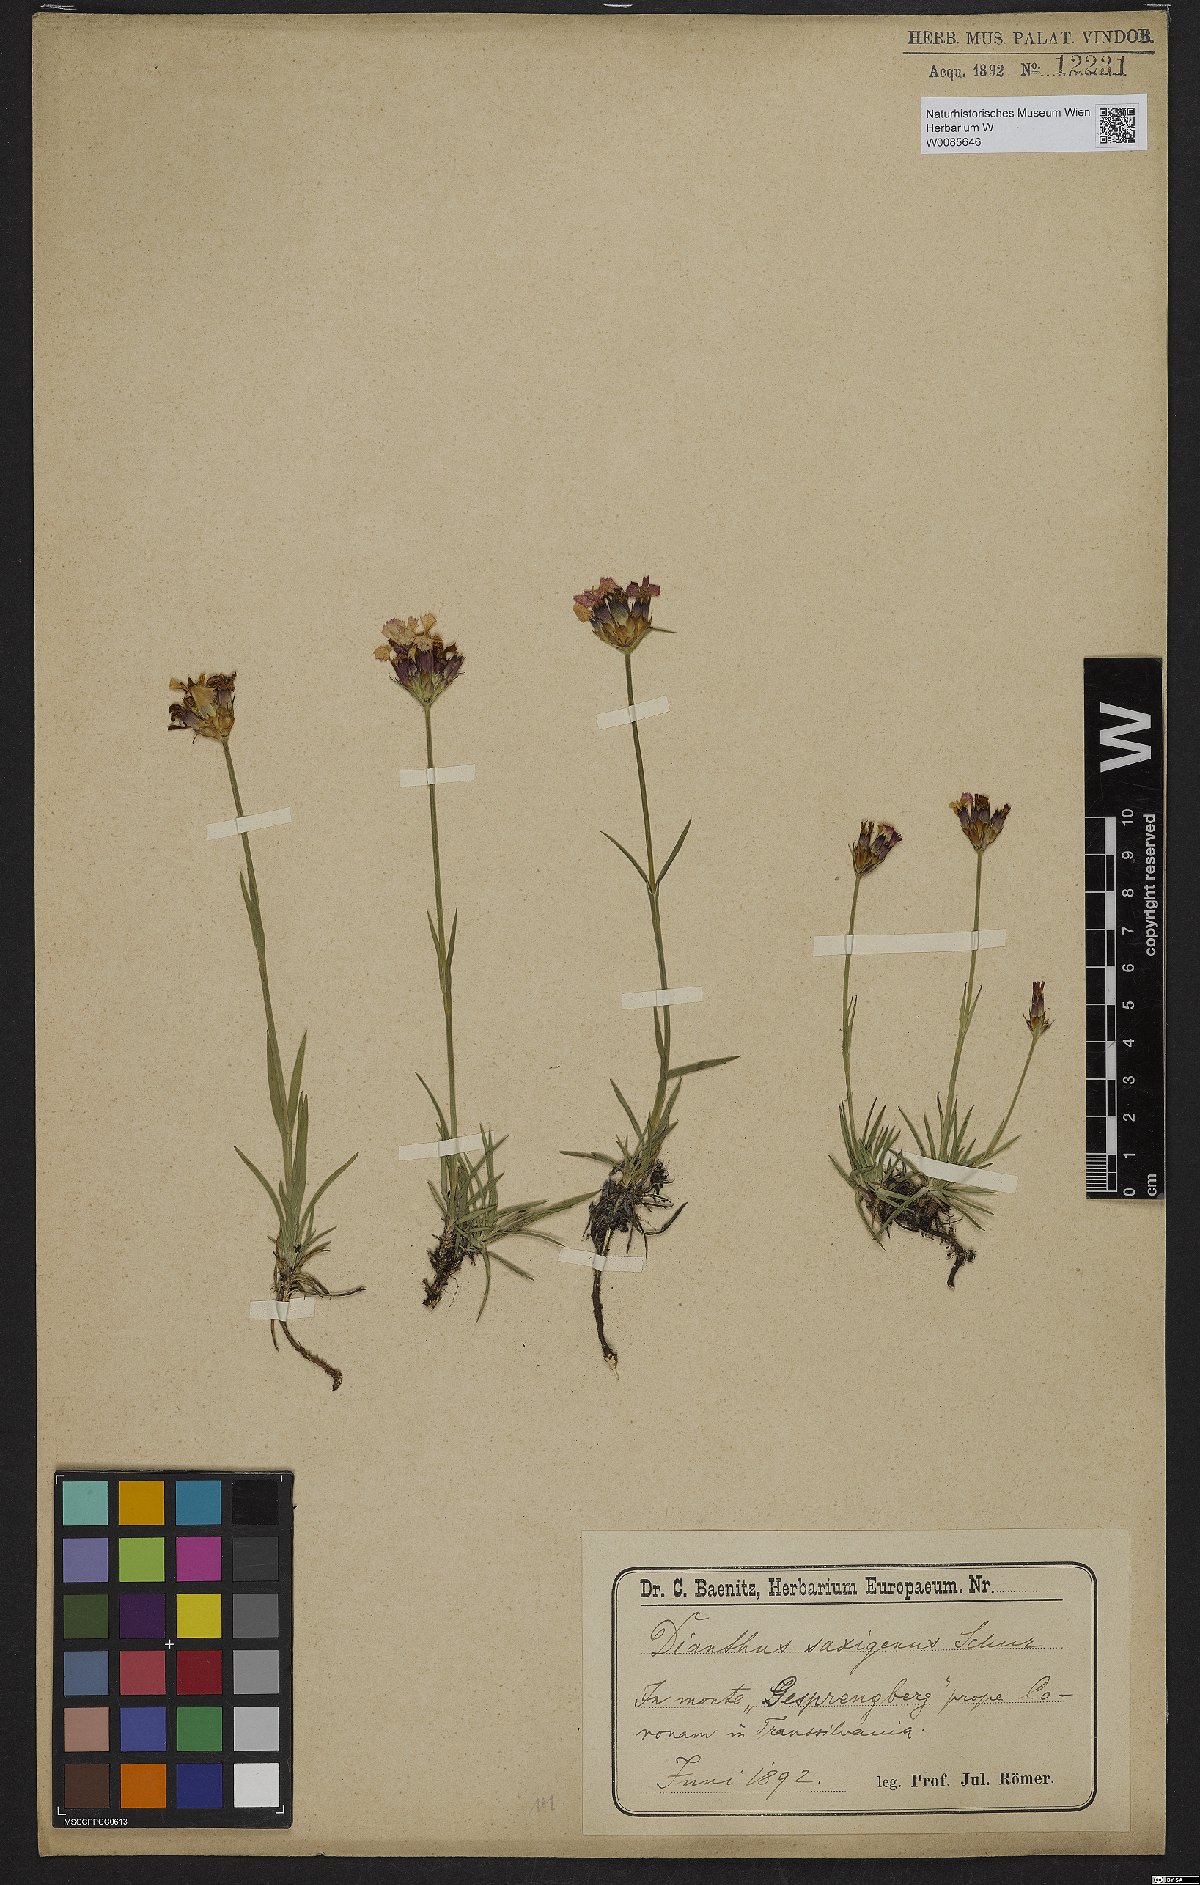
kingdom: Plantae
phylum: Tracheophyta
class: Magnoliopsida
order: Caryophyllales
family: Caryophyllaceae
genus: Dianthus
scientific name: Dianthus
